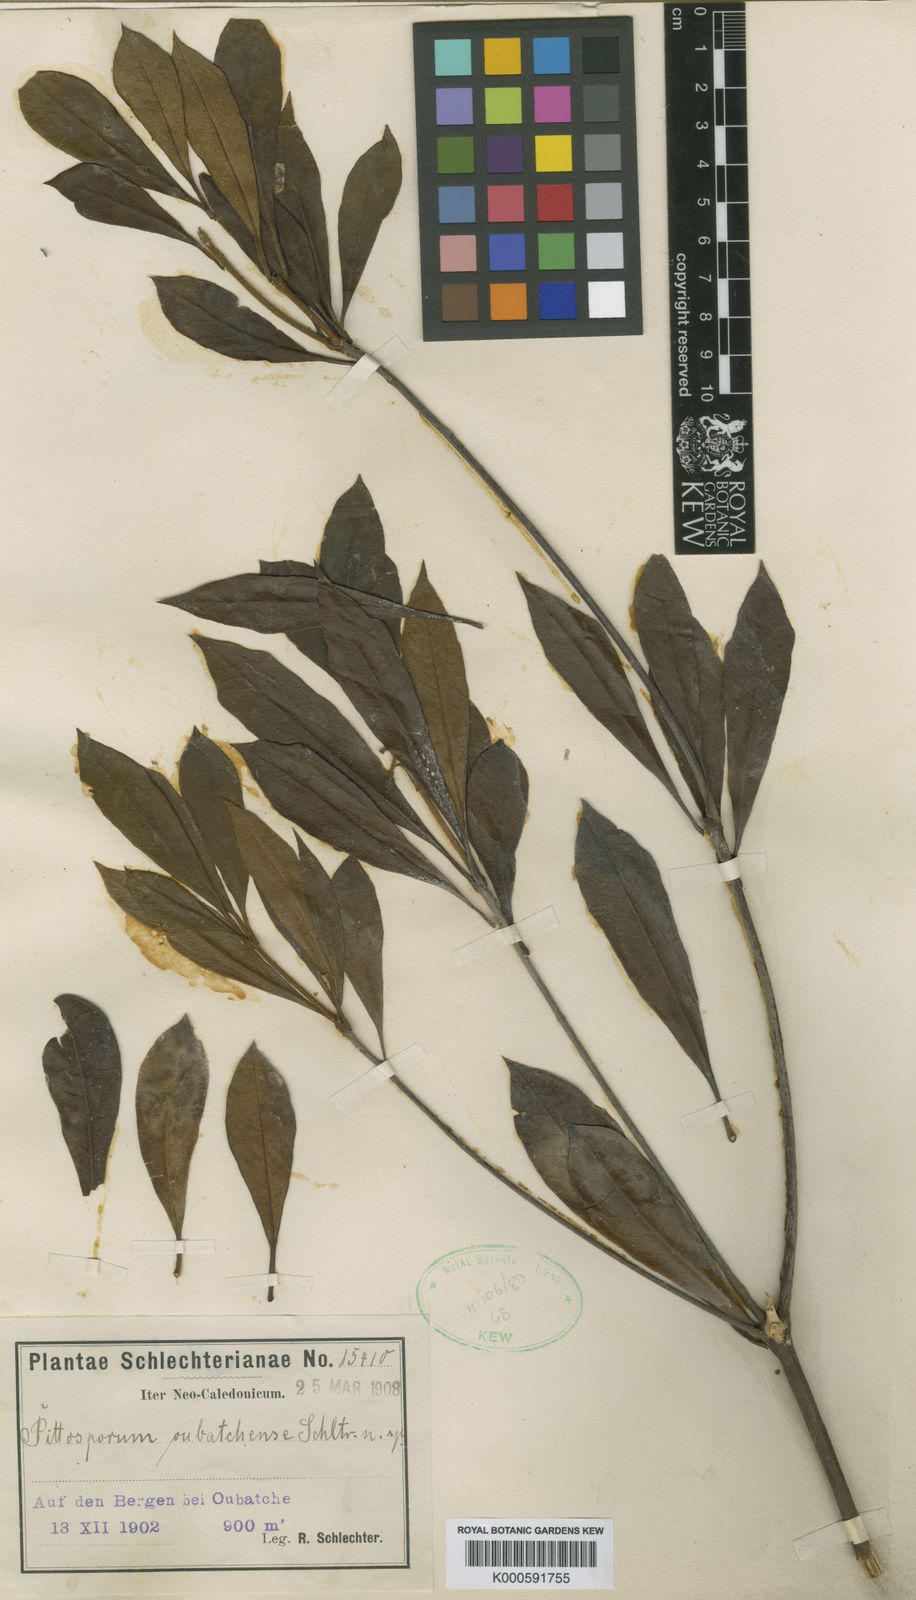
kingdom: Plantae
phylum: Tracheophyta
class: Magnoliopsida
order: Apiales
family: Pittosporaceae
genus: Pittosporum
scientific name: Pittosporum oubatchense
